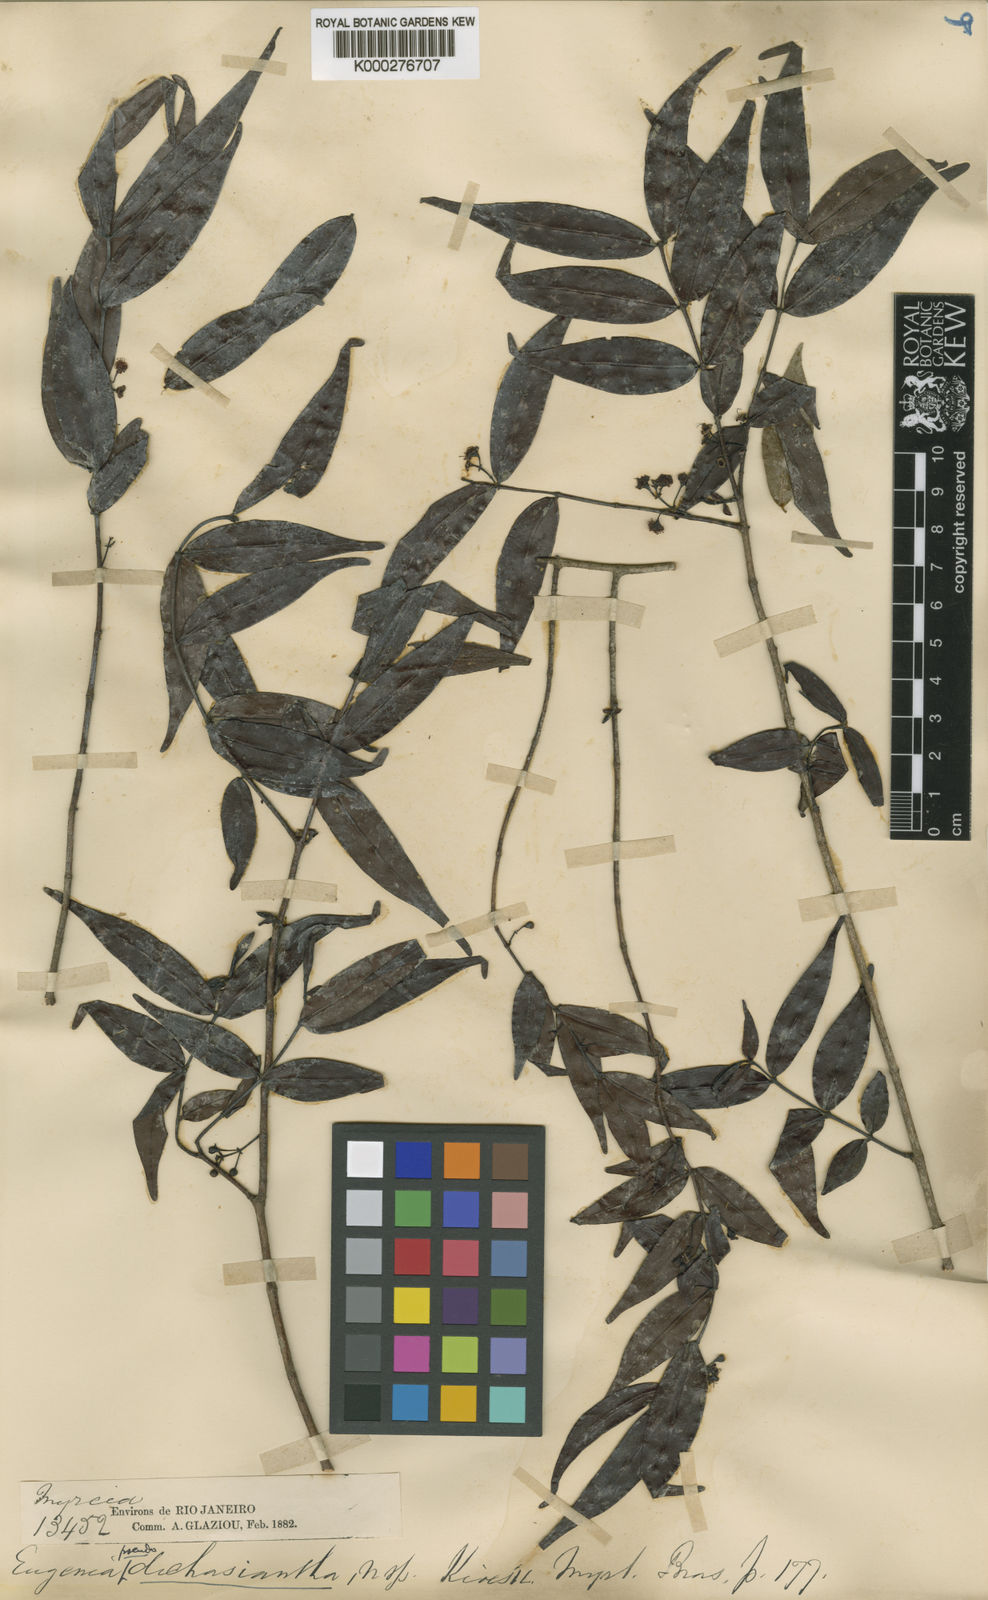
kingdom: Plantae
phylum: Tracheophyta
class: Magnoliopsida
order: Myrtales
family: Myrtaceae
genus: Plinia
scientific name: Plinia pseudodichasiantha
